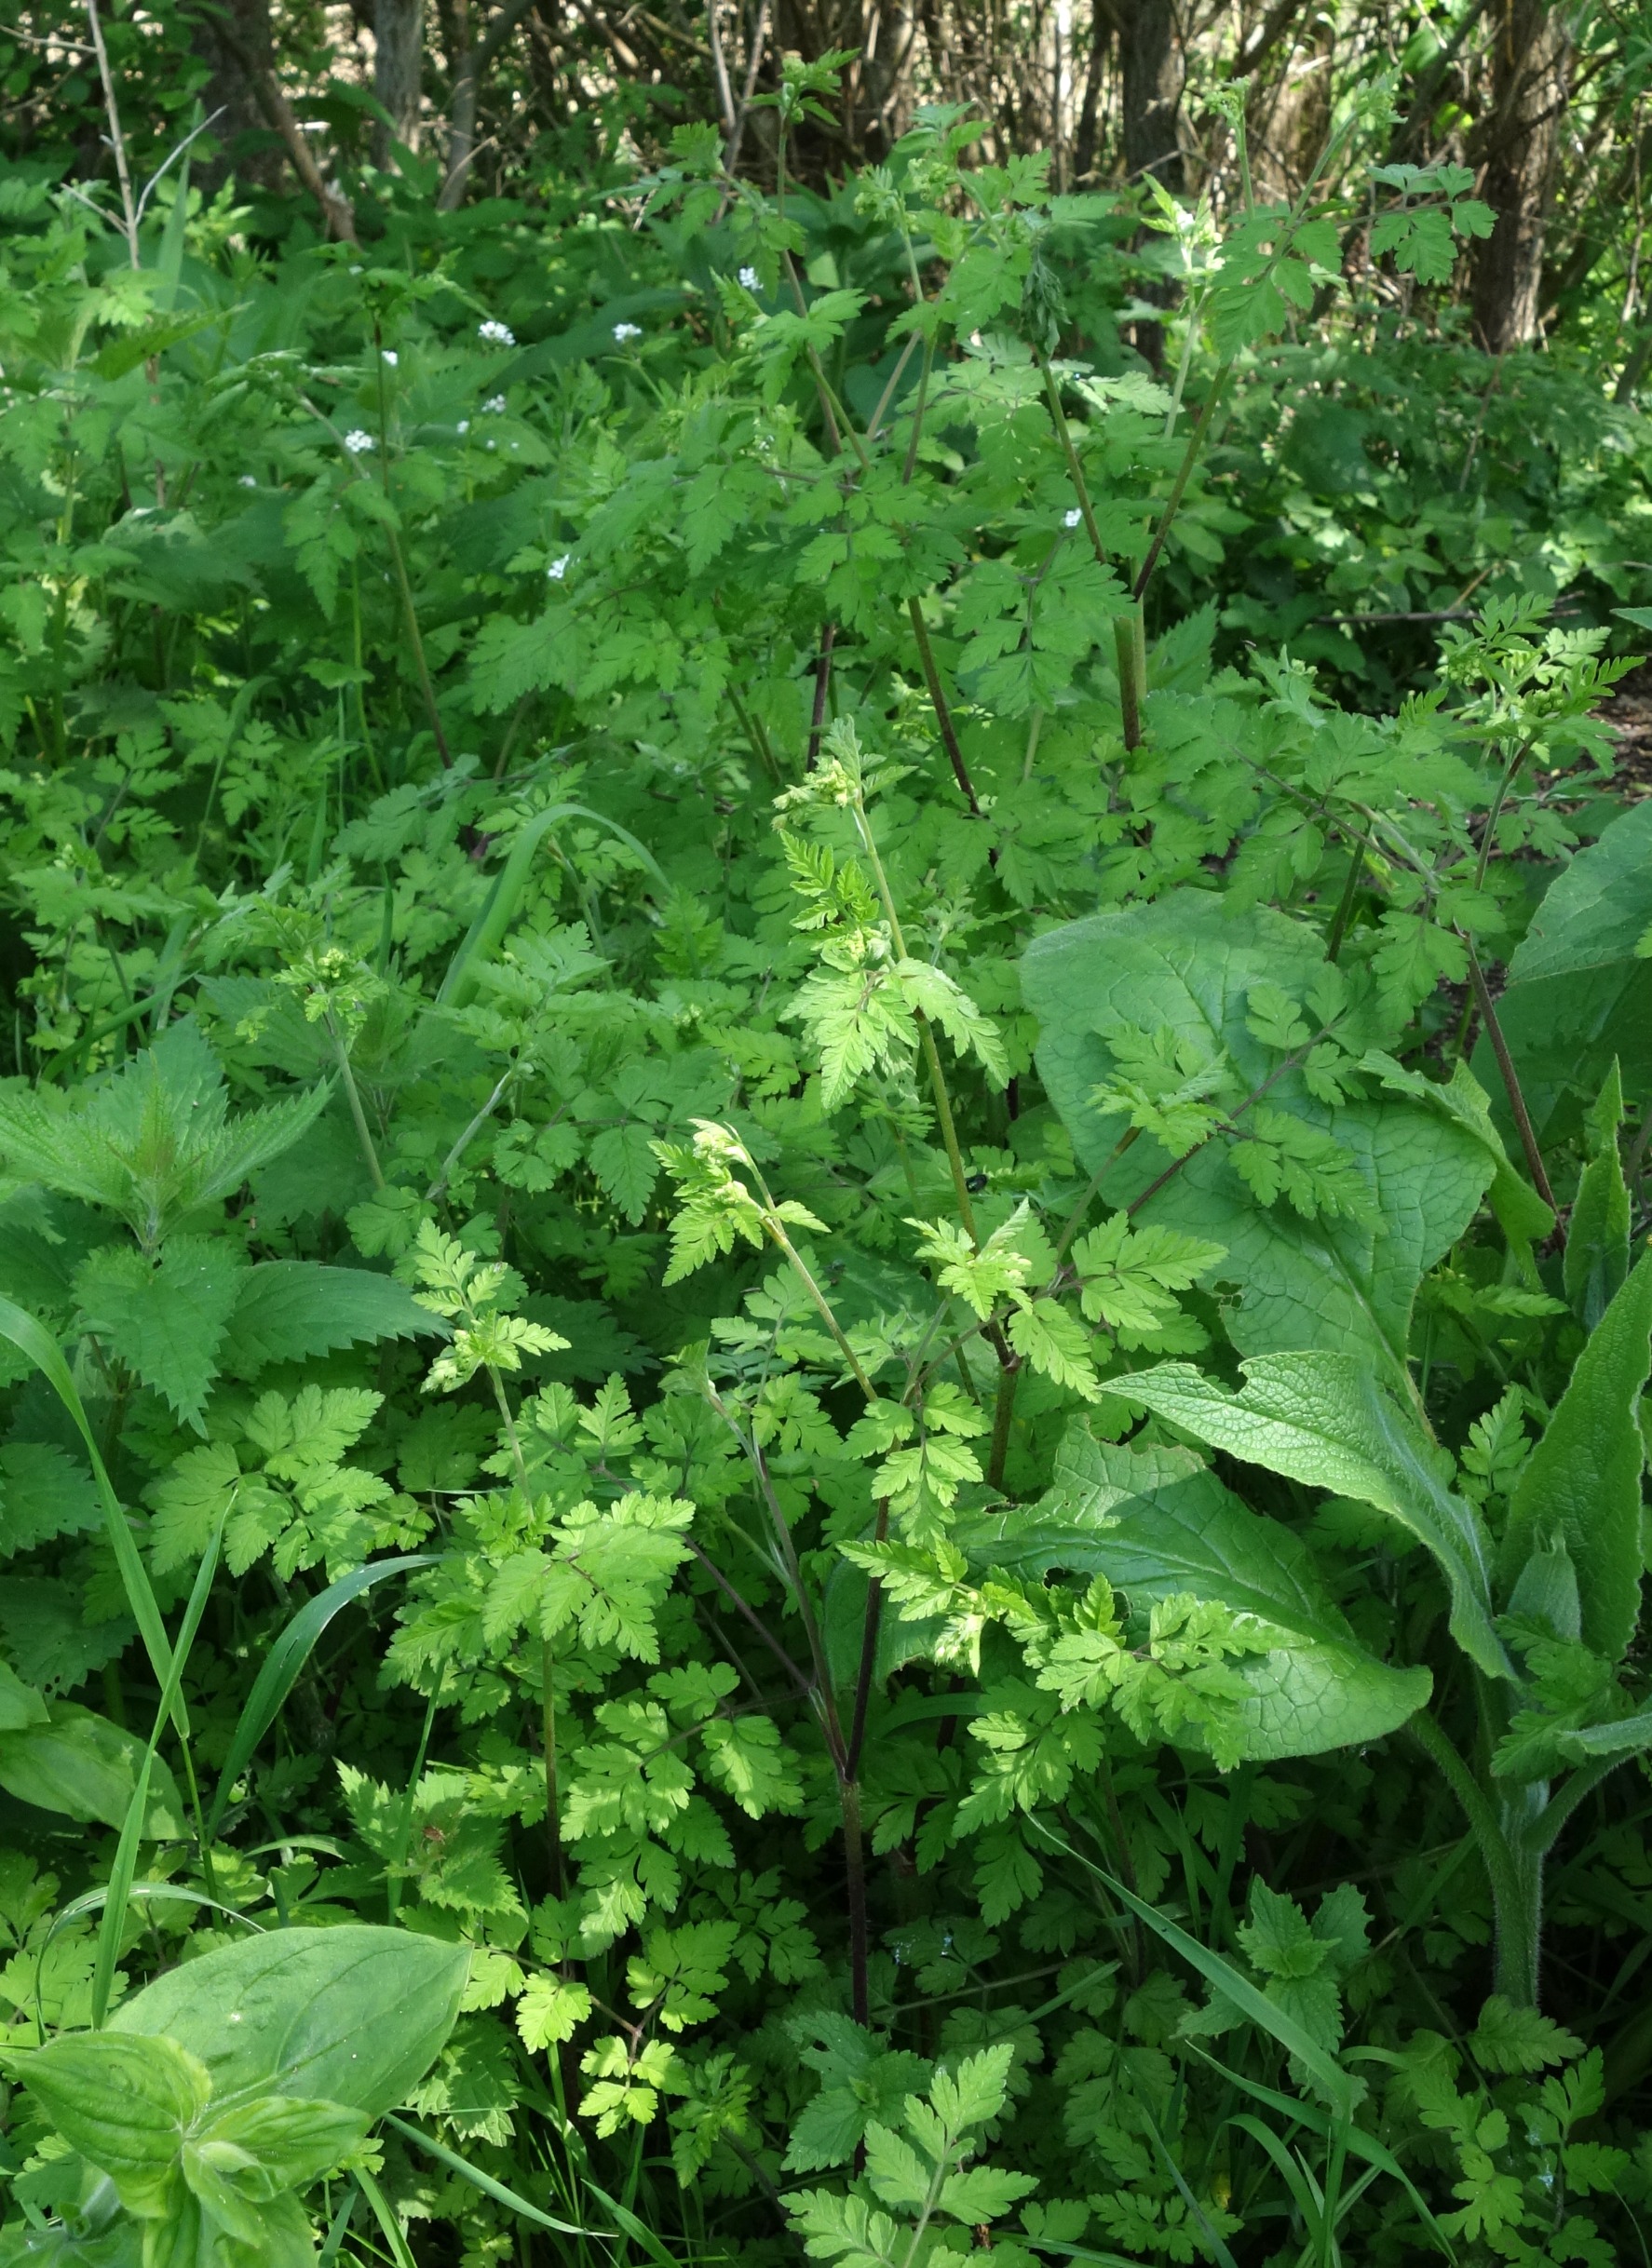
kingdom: Plantae
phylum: Tracheophyta
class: Magnoliopsida
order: Apiales
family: Apiaceae
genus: Chaerophyllum
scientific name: Chaerophyllum temulum
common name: Almindelig hulsvøb
